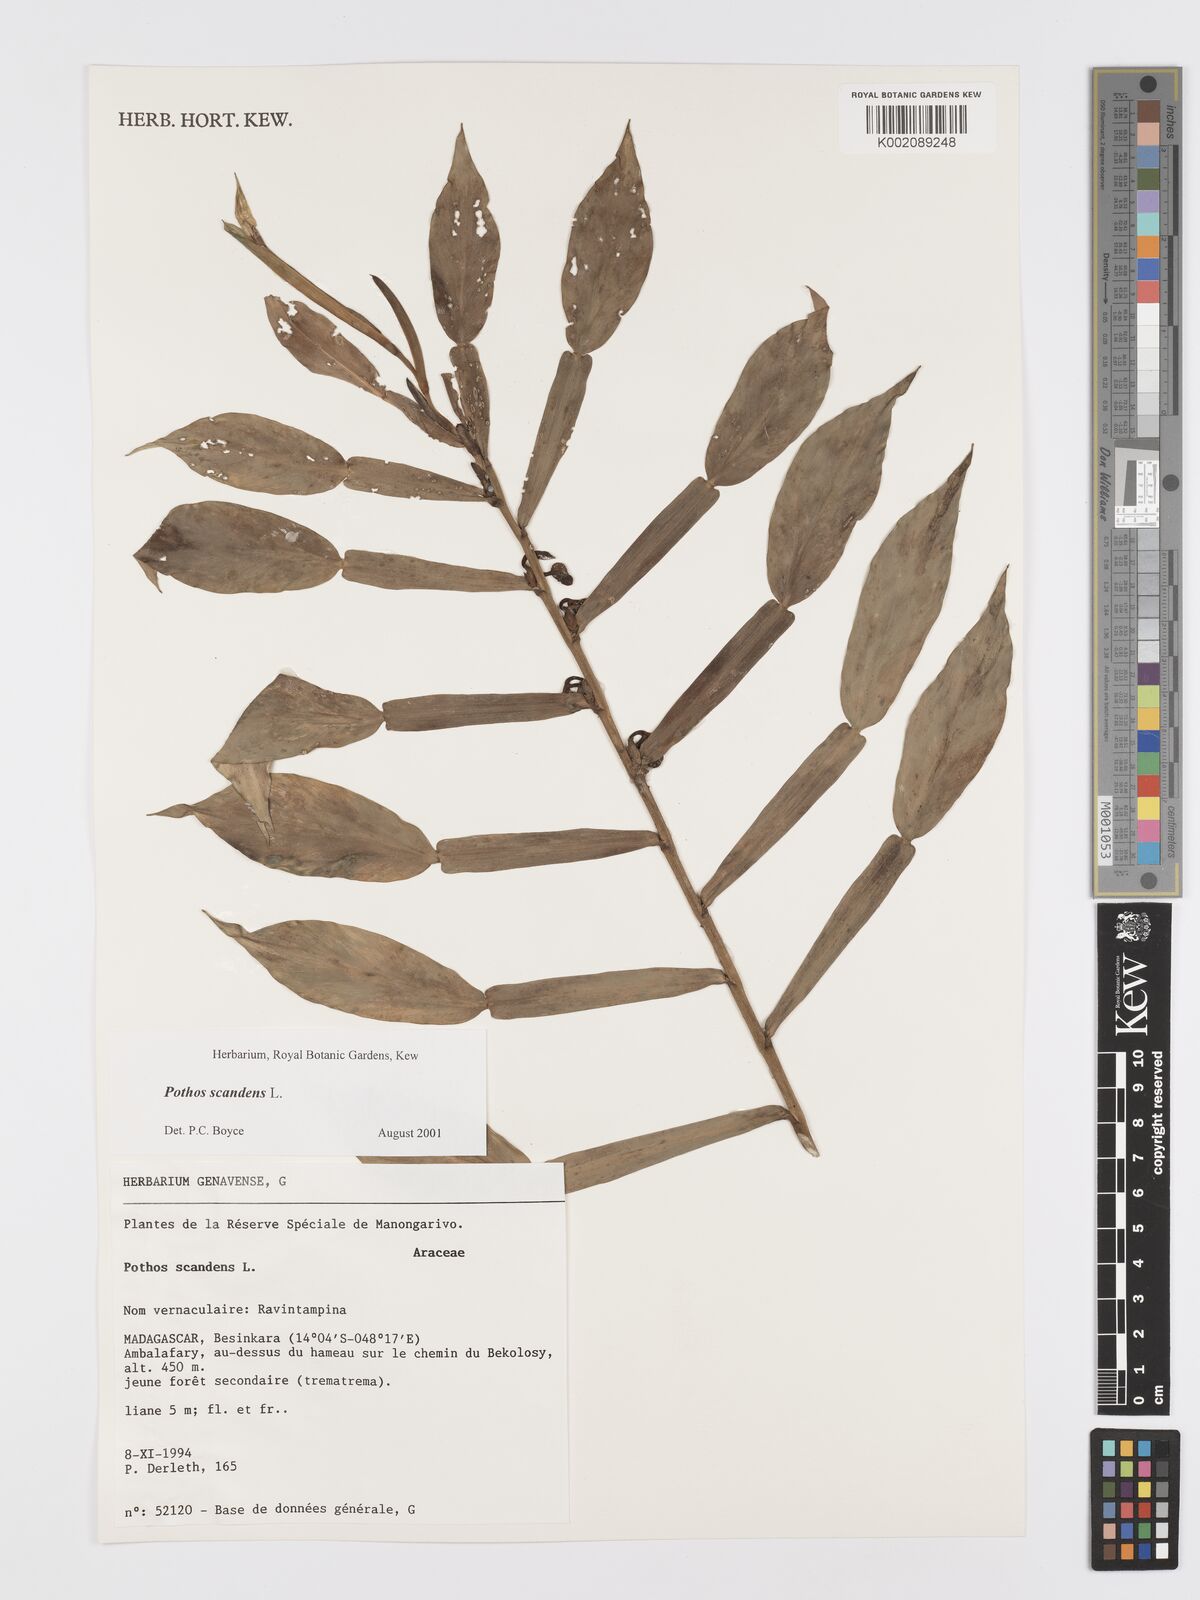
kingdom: Plantae
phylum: Tracheophyta
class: Liliopsida
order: Alismatales
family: Araceae
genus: Pothos
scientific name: Pothos scandens
